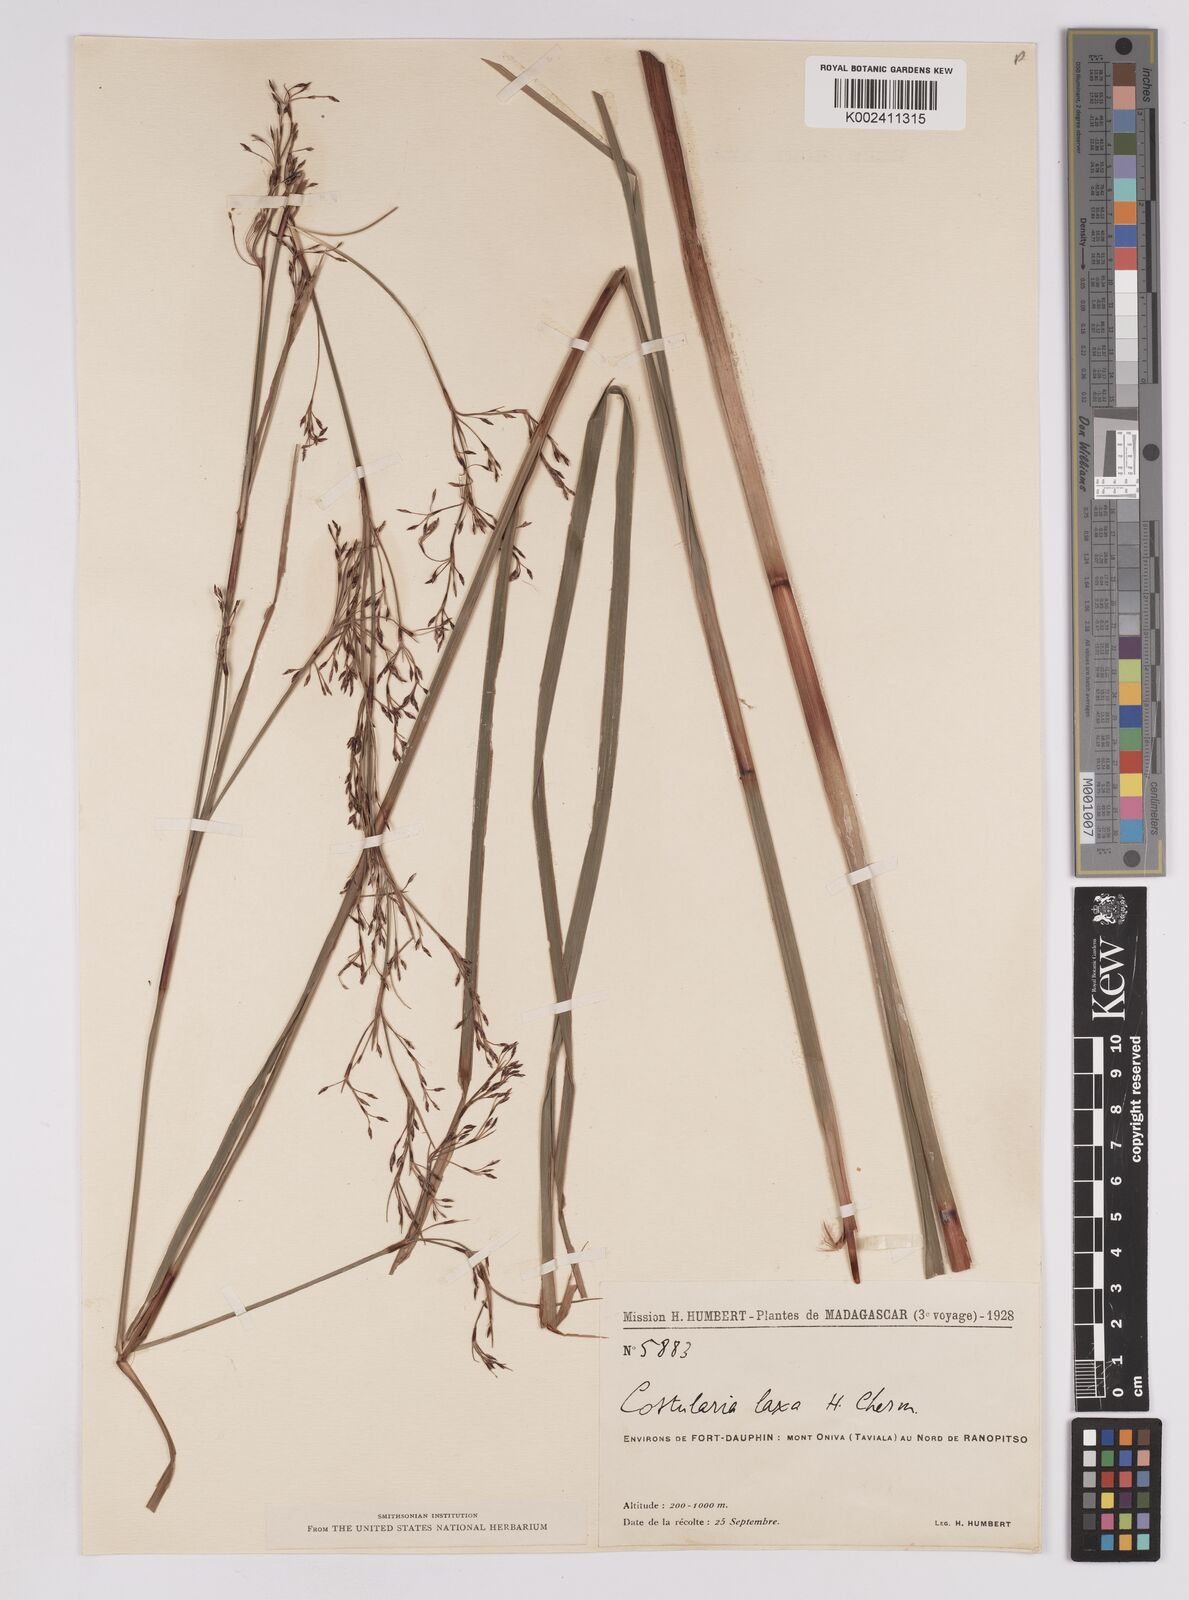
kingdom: Plantae
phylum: Tracheophyta
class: Liliopsida
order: Poales
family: Cyperaceae
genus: Costularia
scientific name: Costularia purpurea
